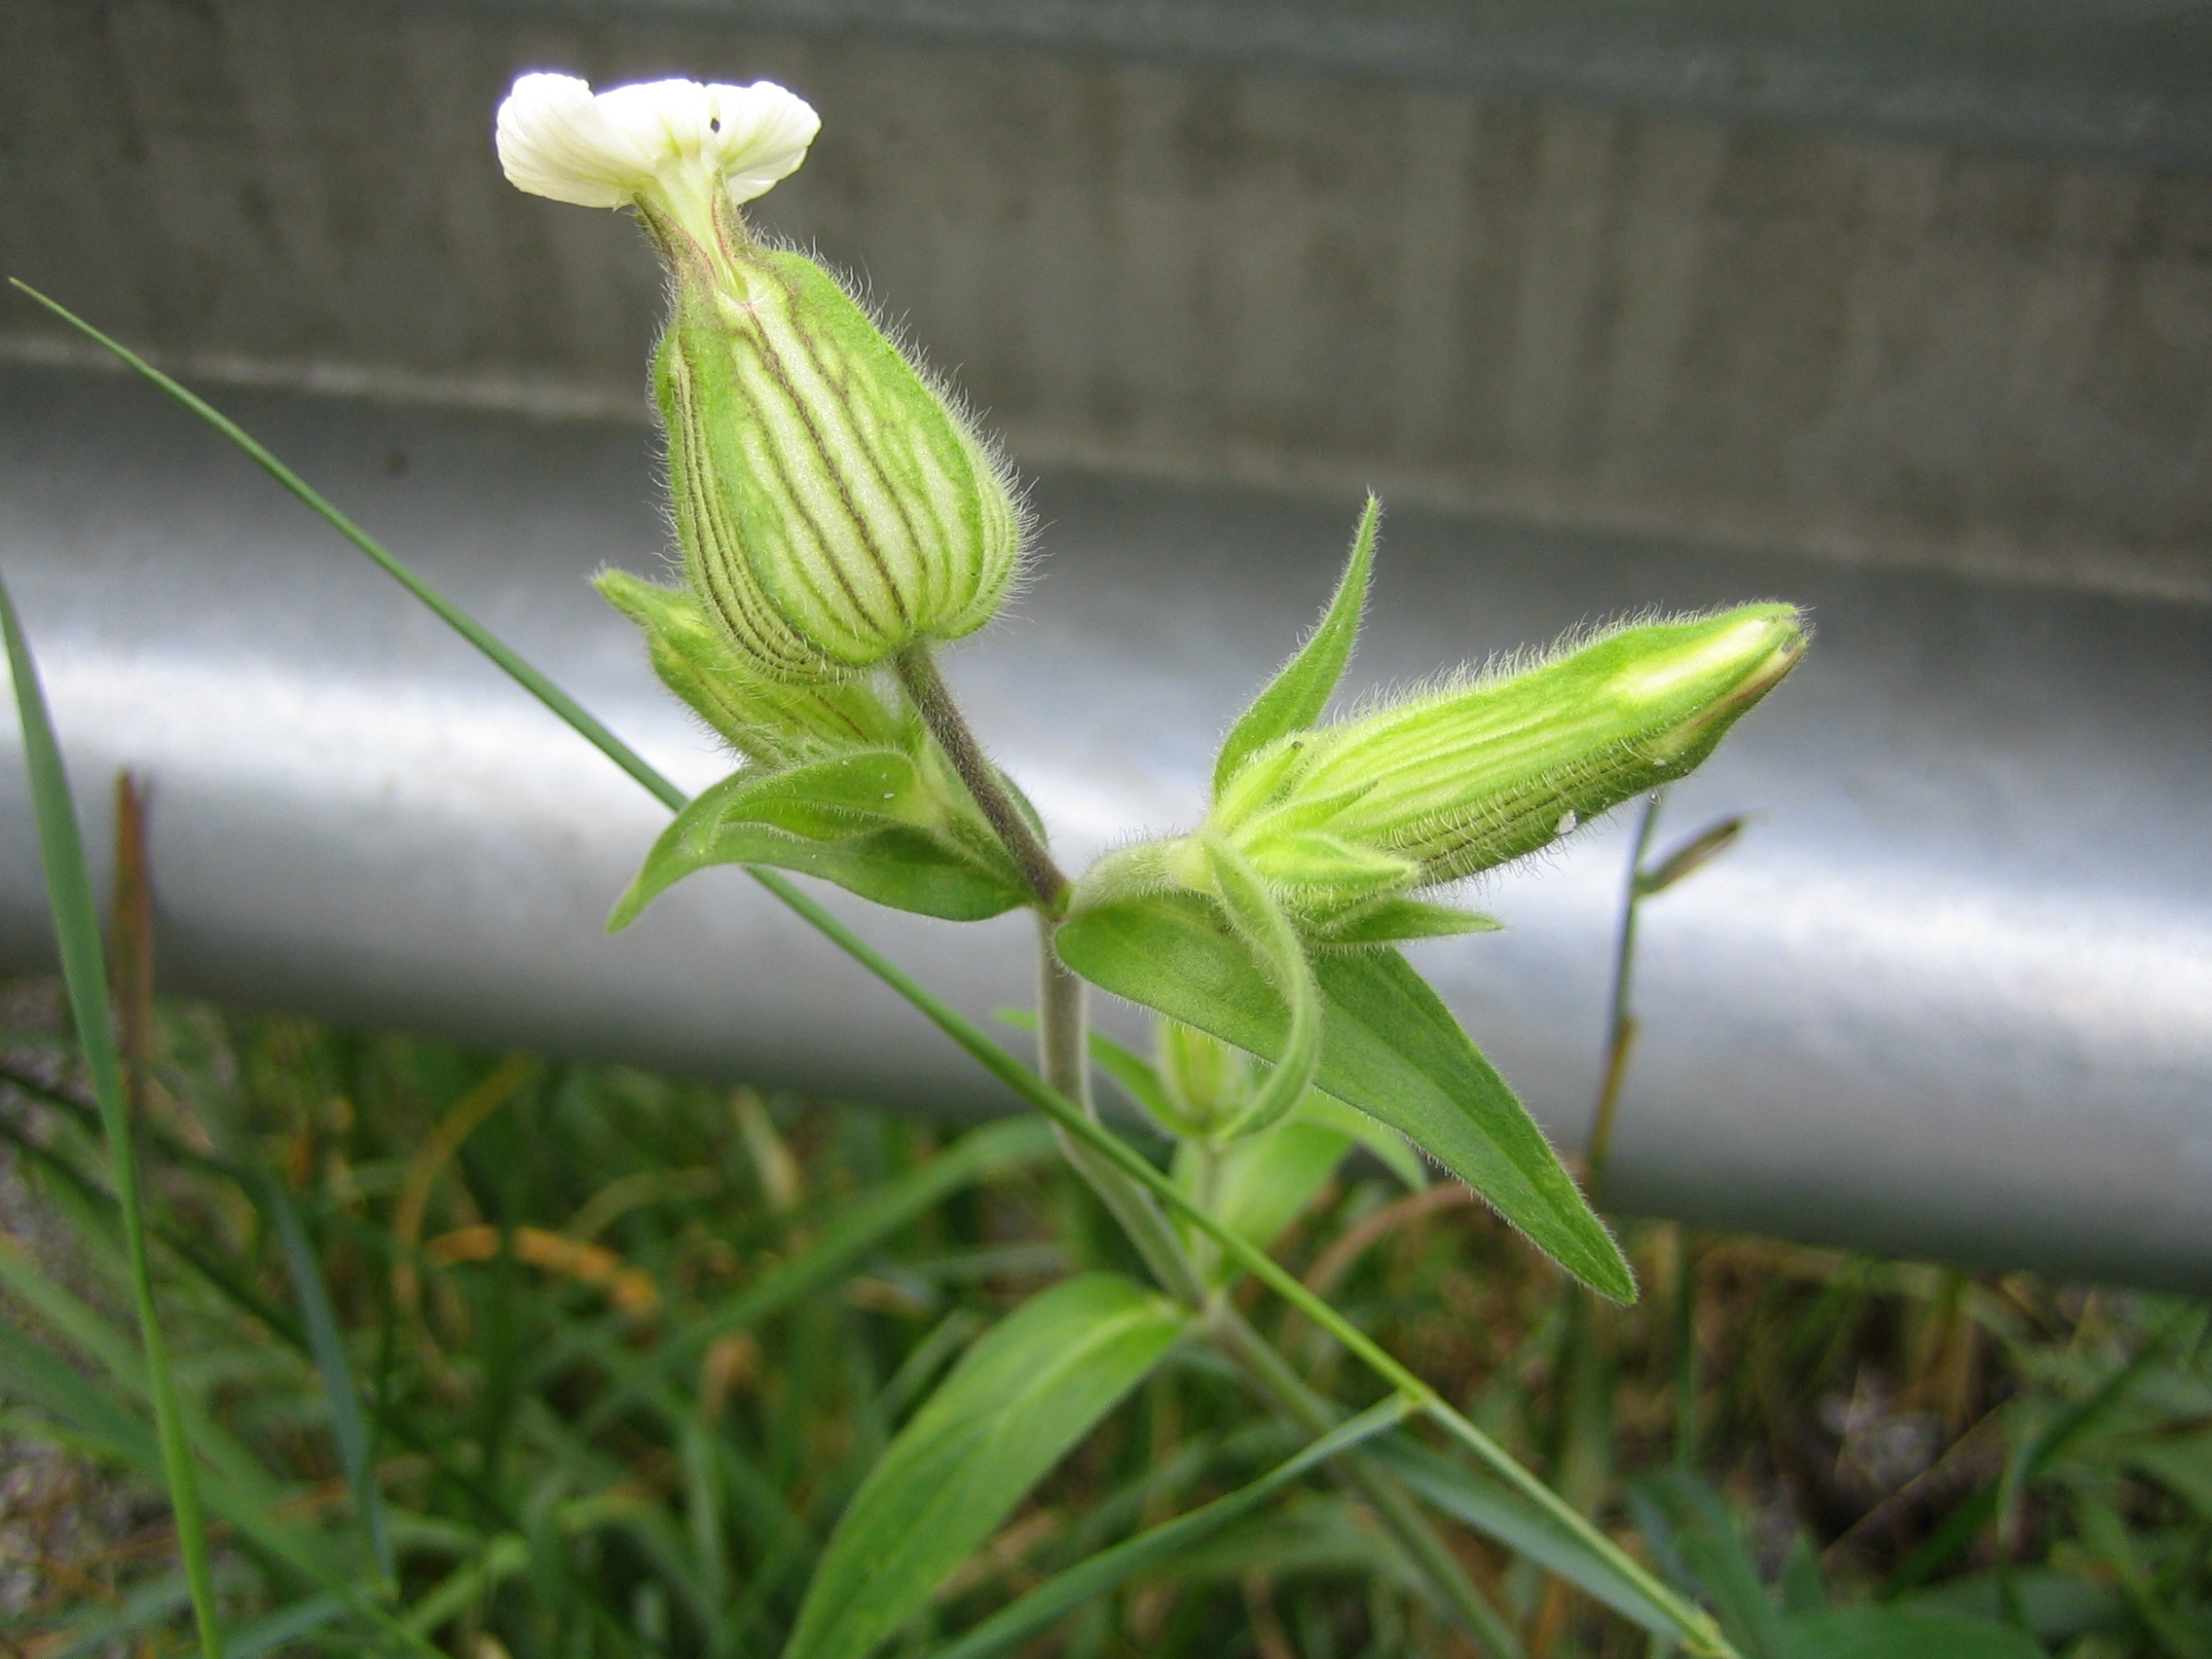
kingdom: Plantae
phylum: Tracheophyta
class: Magnoliopsida
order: Caryophyllales
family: Caryophyllaceae
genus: Silene
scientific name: Silene latifolia
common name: White campion
